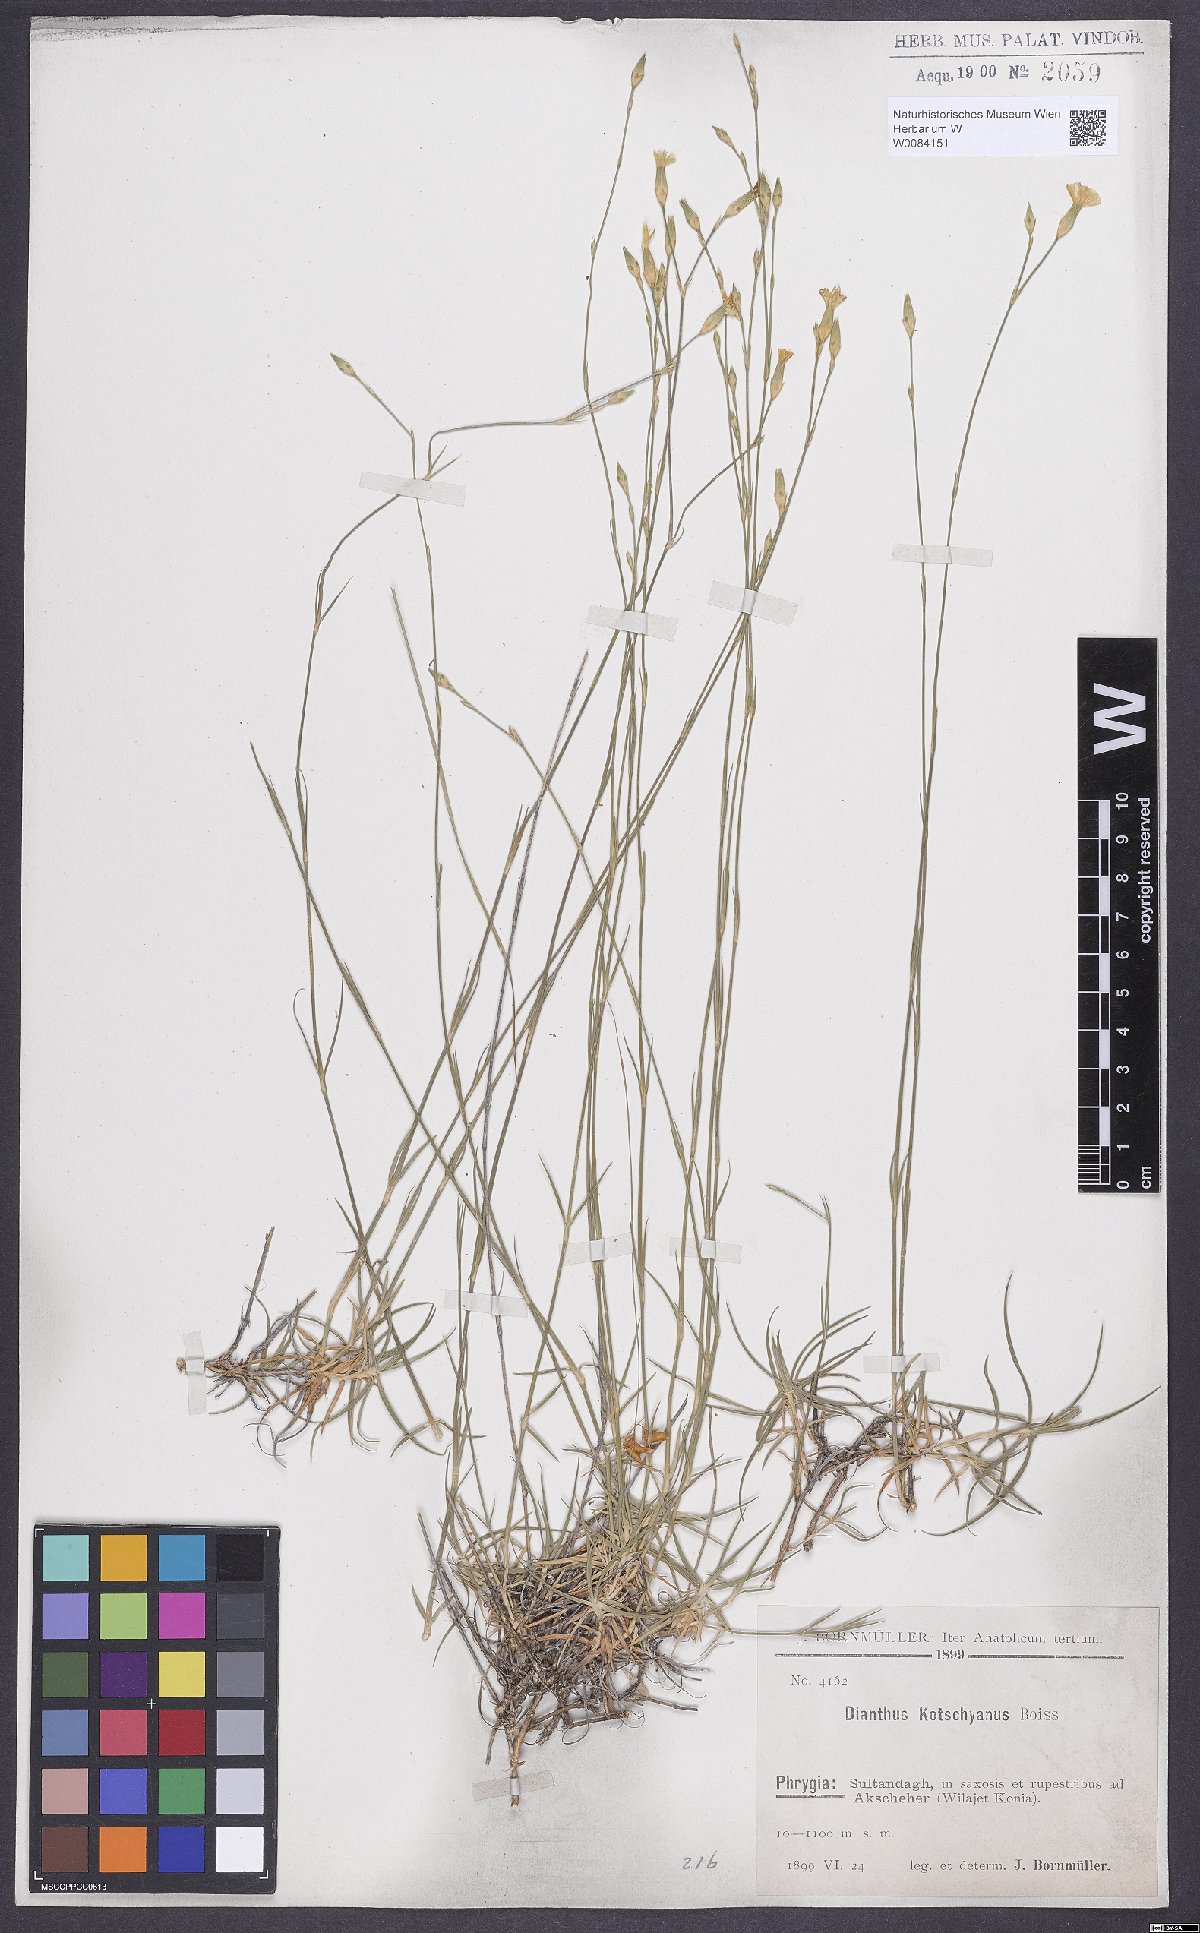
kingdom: Plantae
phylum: Tracheophyta
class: Magnoliopsida
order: Caryophyllales
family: Caryophyllaceae
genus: Dianthus
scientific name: Dianthus anatolicus
